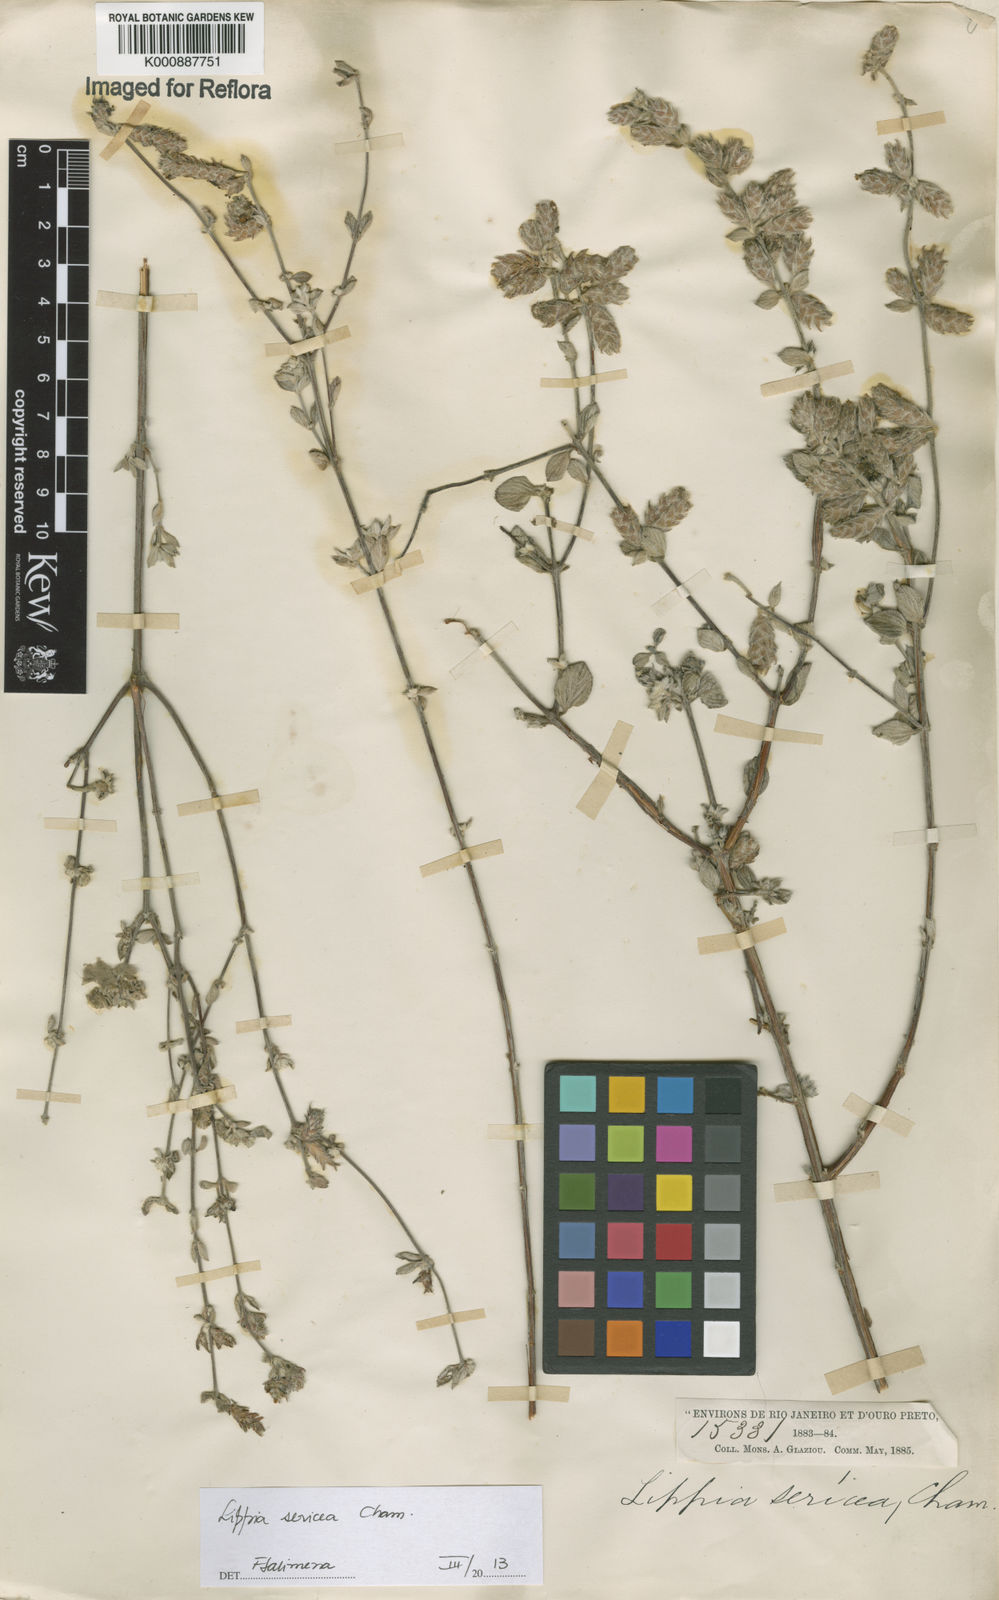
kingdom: Plantae
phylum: Tracheophyta
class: Magnoliopsida
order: Lamiales
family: Verbenaceae
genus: Lippia
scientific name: Lippia sericea
